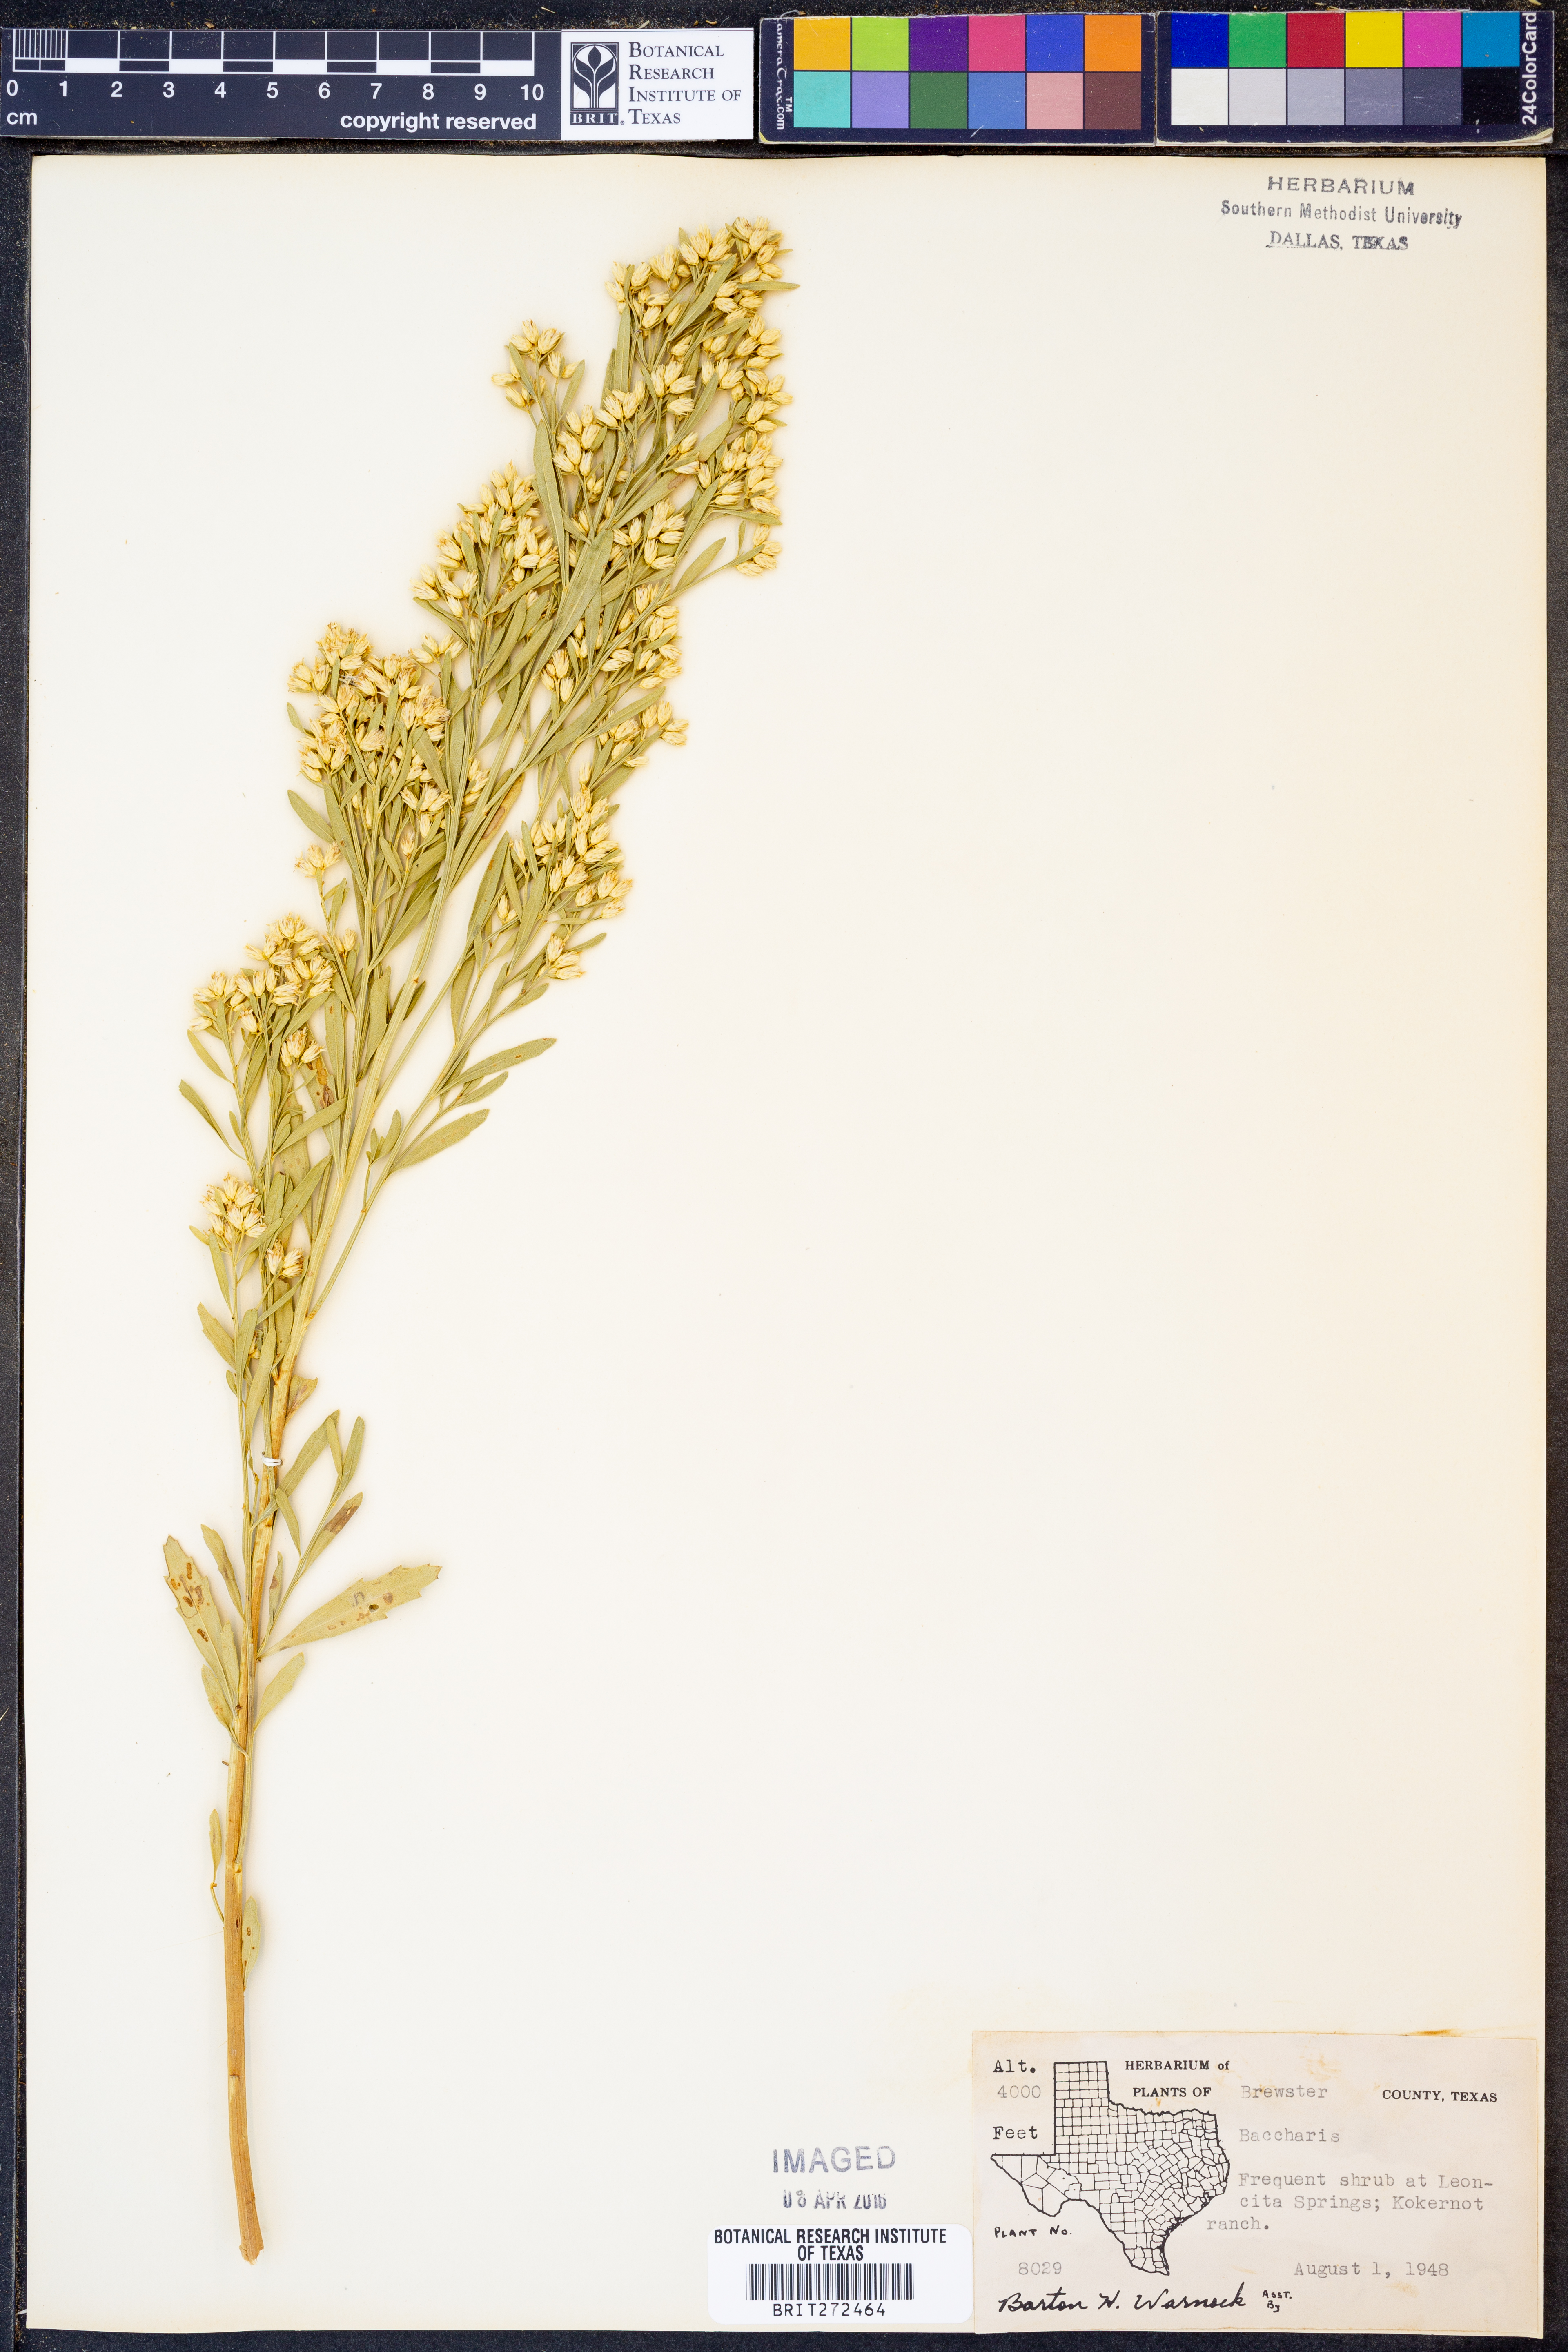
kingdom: Plantae
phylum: Tracheophyta
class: Magnoliopsida
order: Asterales
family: Asteraceae
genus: Baccharis
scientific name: Baccharis
